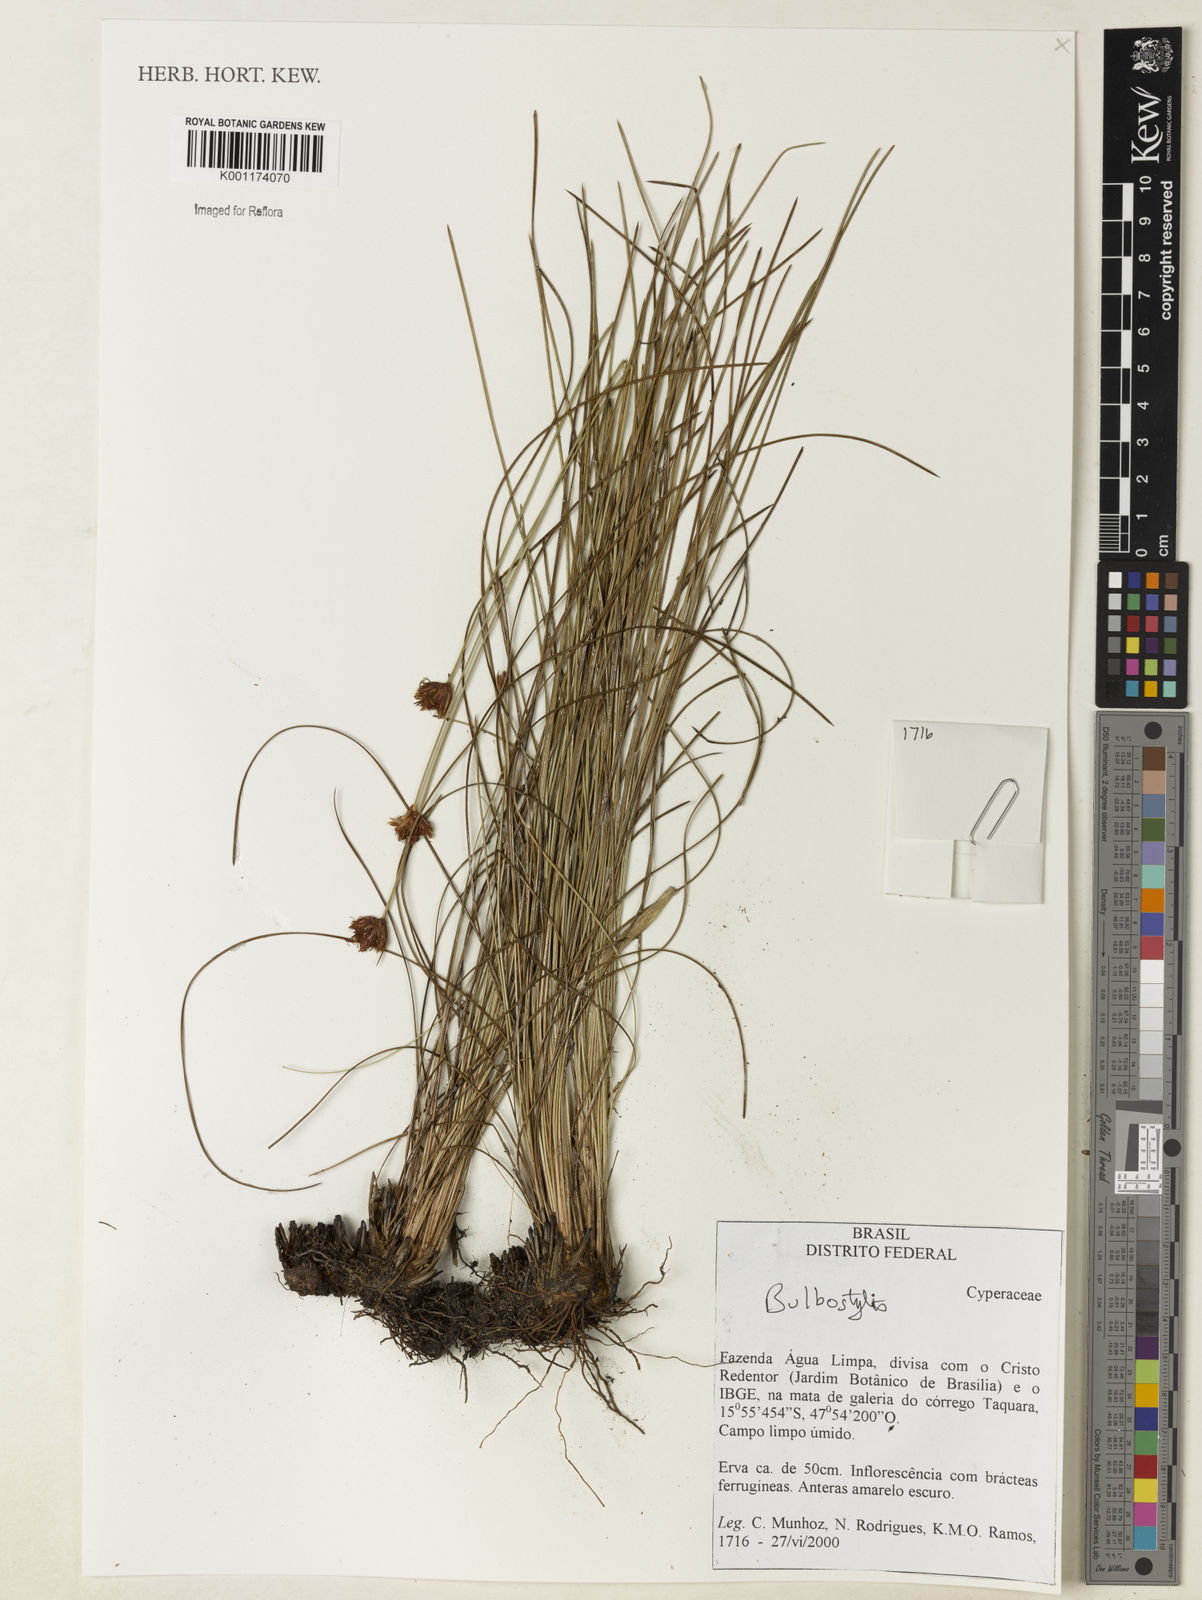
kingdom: Plantae
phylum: Tracheophyta
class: Liliopsida
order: Poales
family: Cyperaceae
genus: Bulbostylis
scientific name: Bulbostylis
